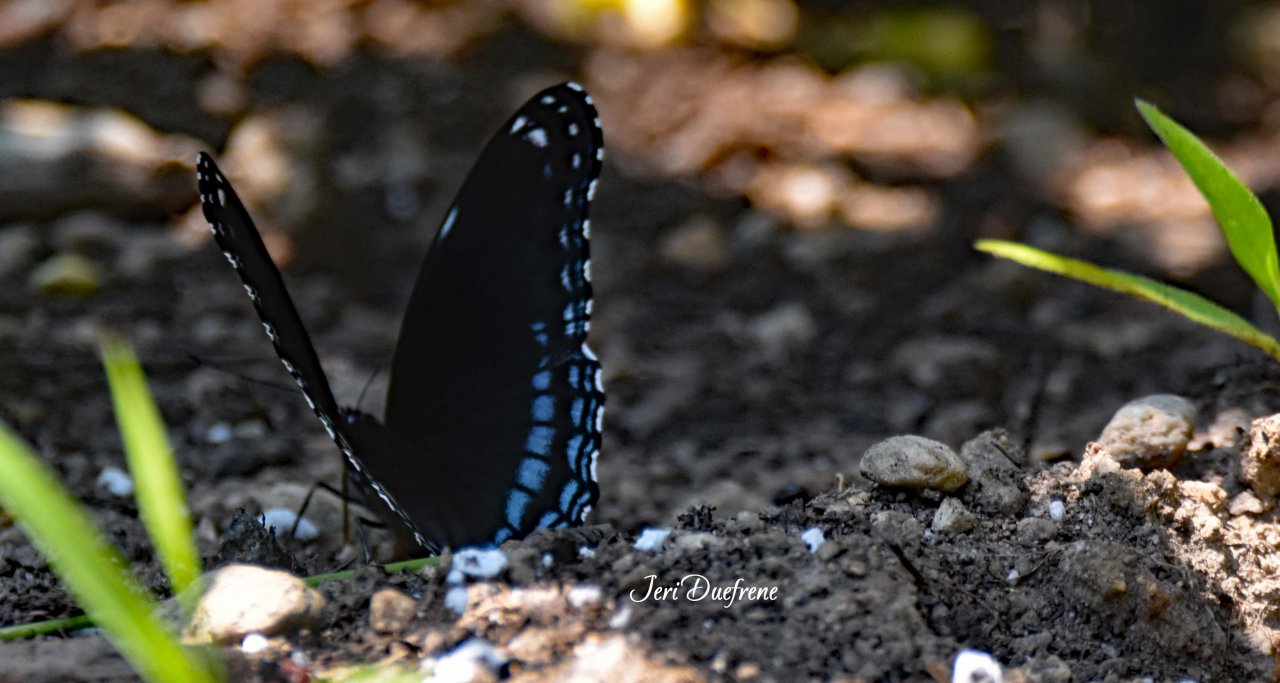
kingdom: Animalia
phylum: Arthropoda
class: Insecta
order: Lepidoptera
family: Nymphalidae
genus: Limenitis
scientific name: Limenitis astyanax
